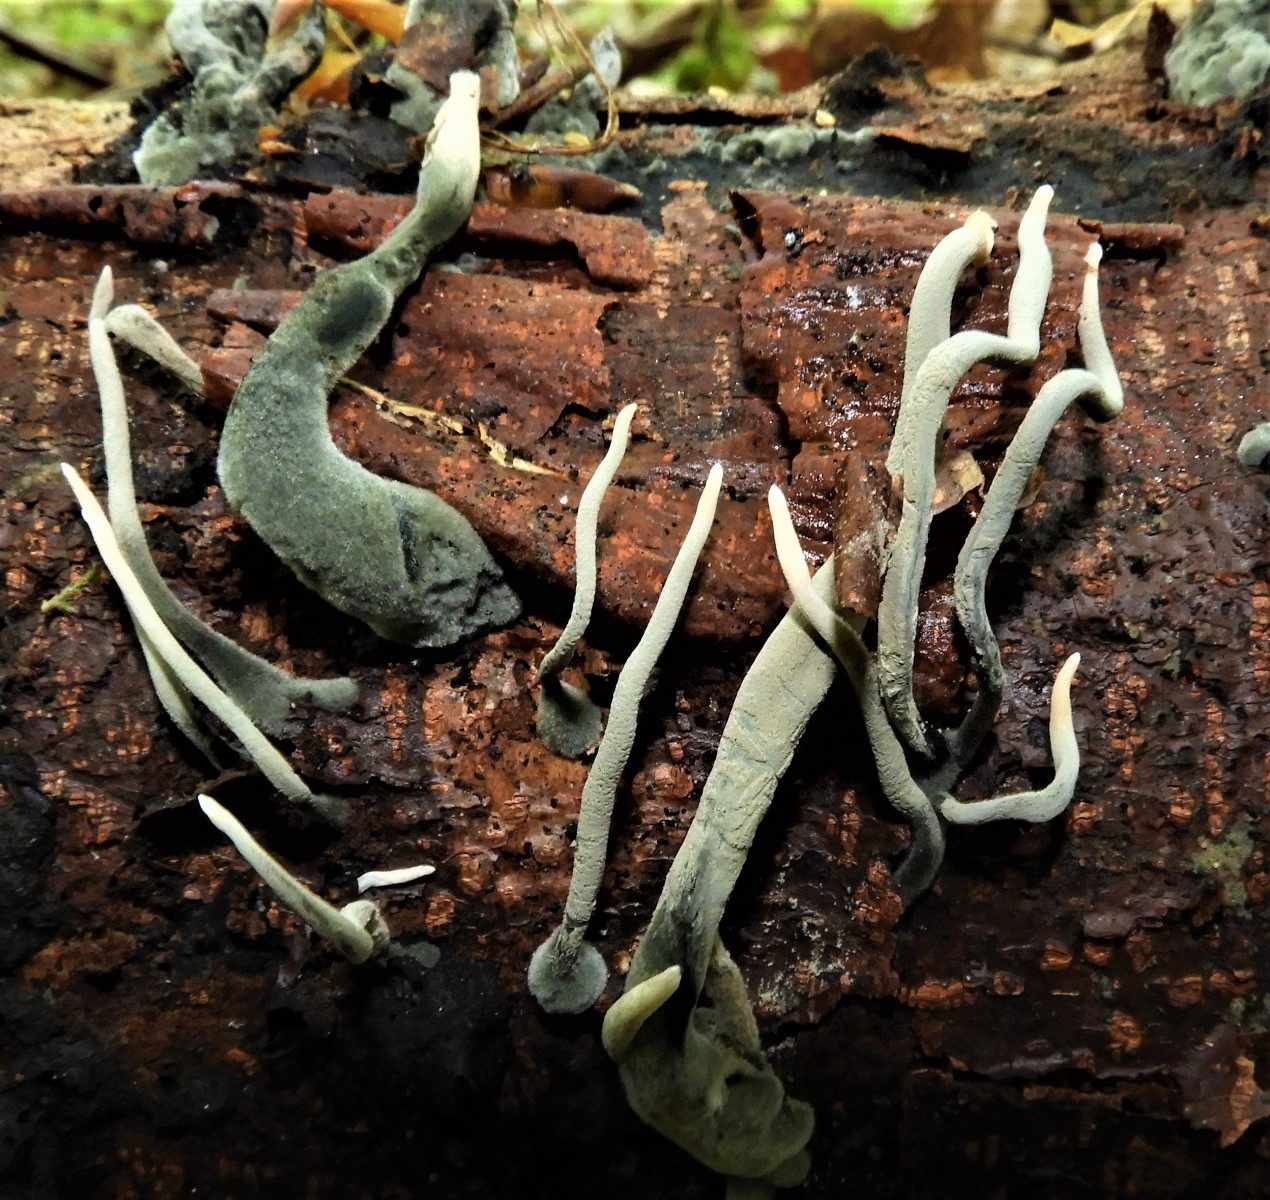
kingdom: Fungi
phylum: Ascomycota
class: Sordariomycetes
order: Xylariales
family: Xylariaceae
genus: Xylaria
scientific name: Xylaria hypoxylon
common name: grenet stødsvamp
